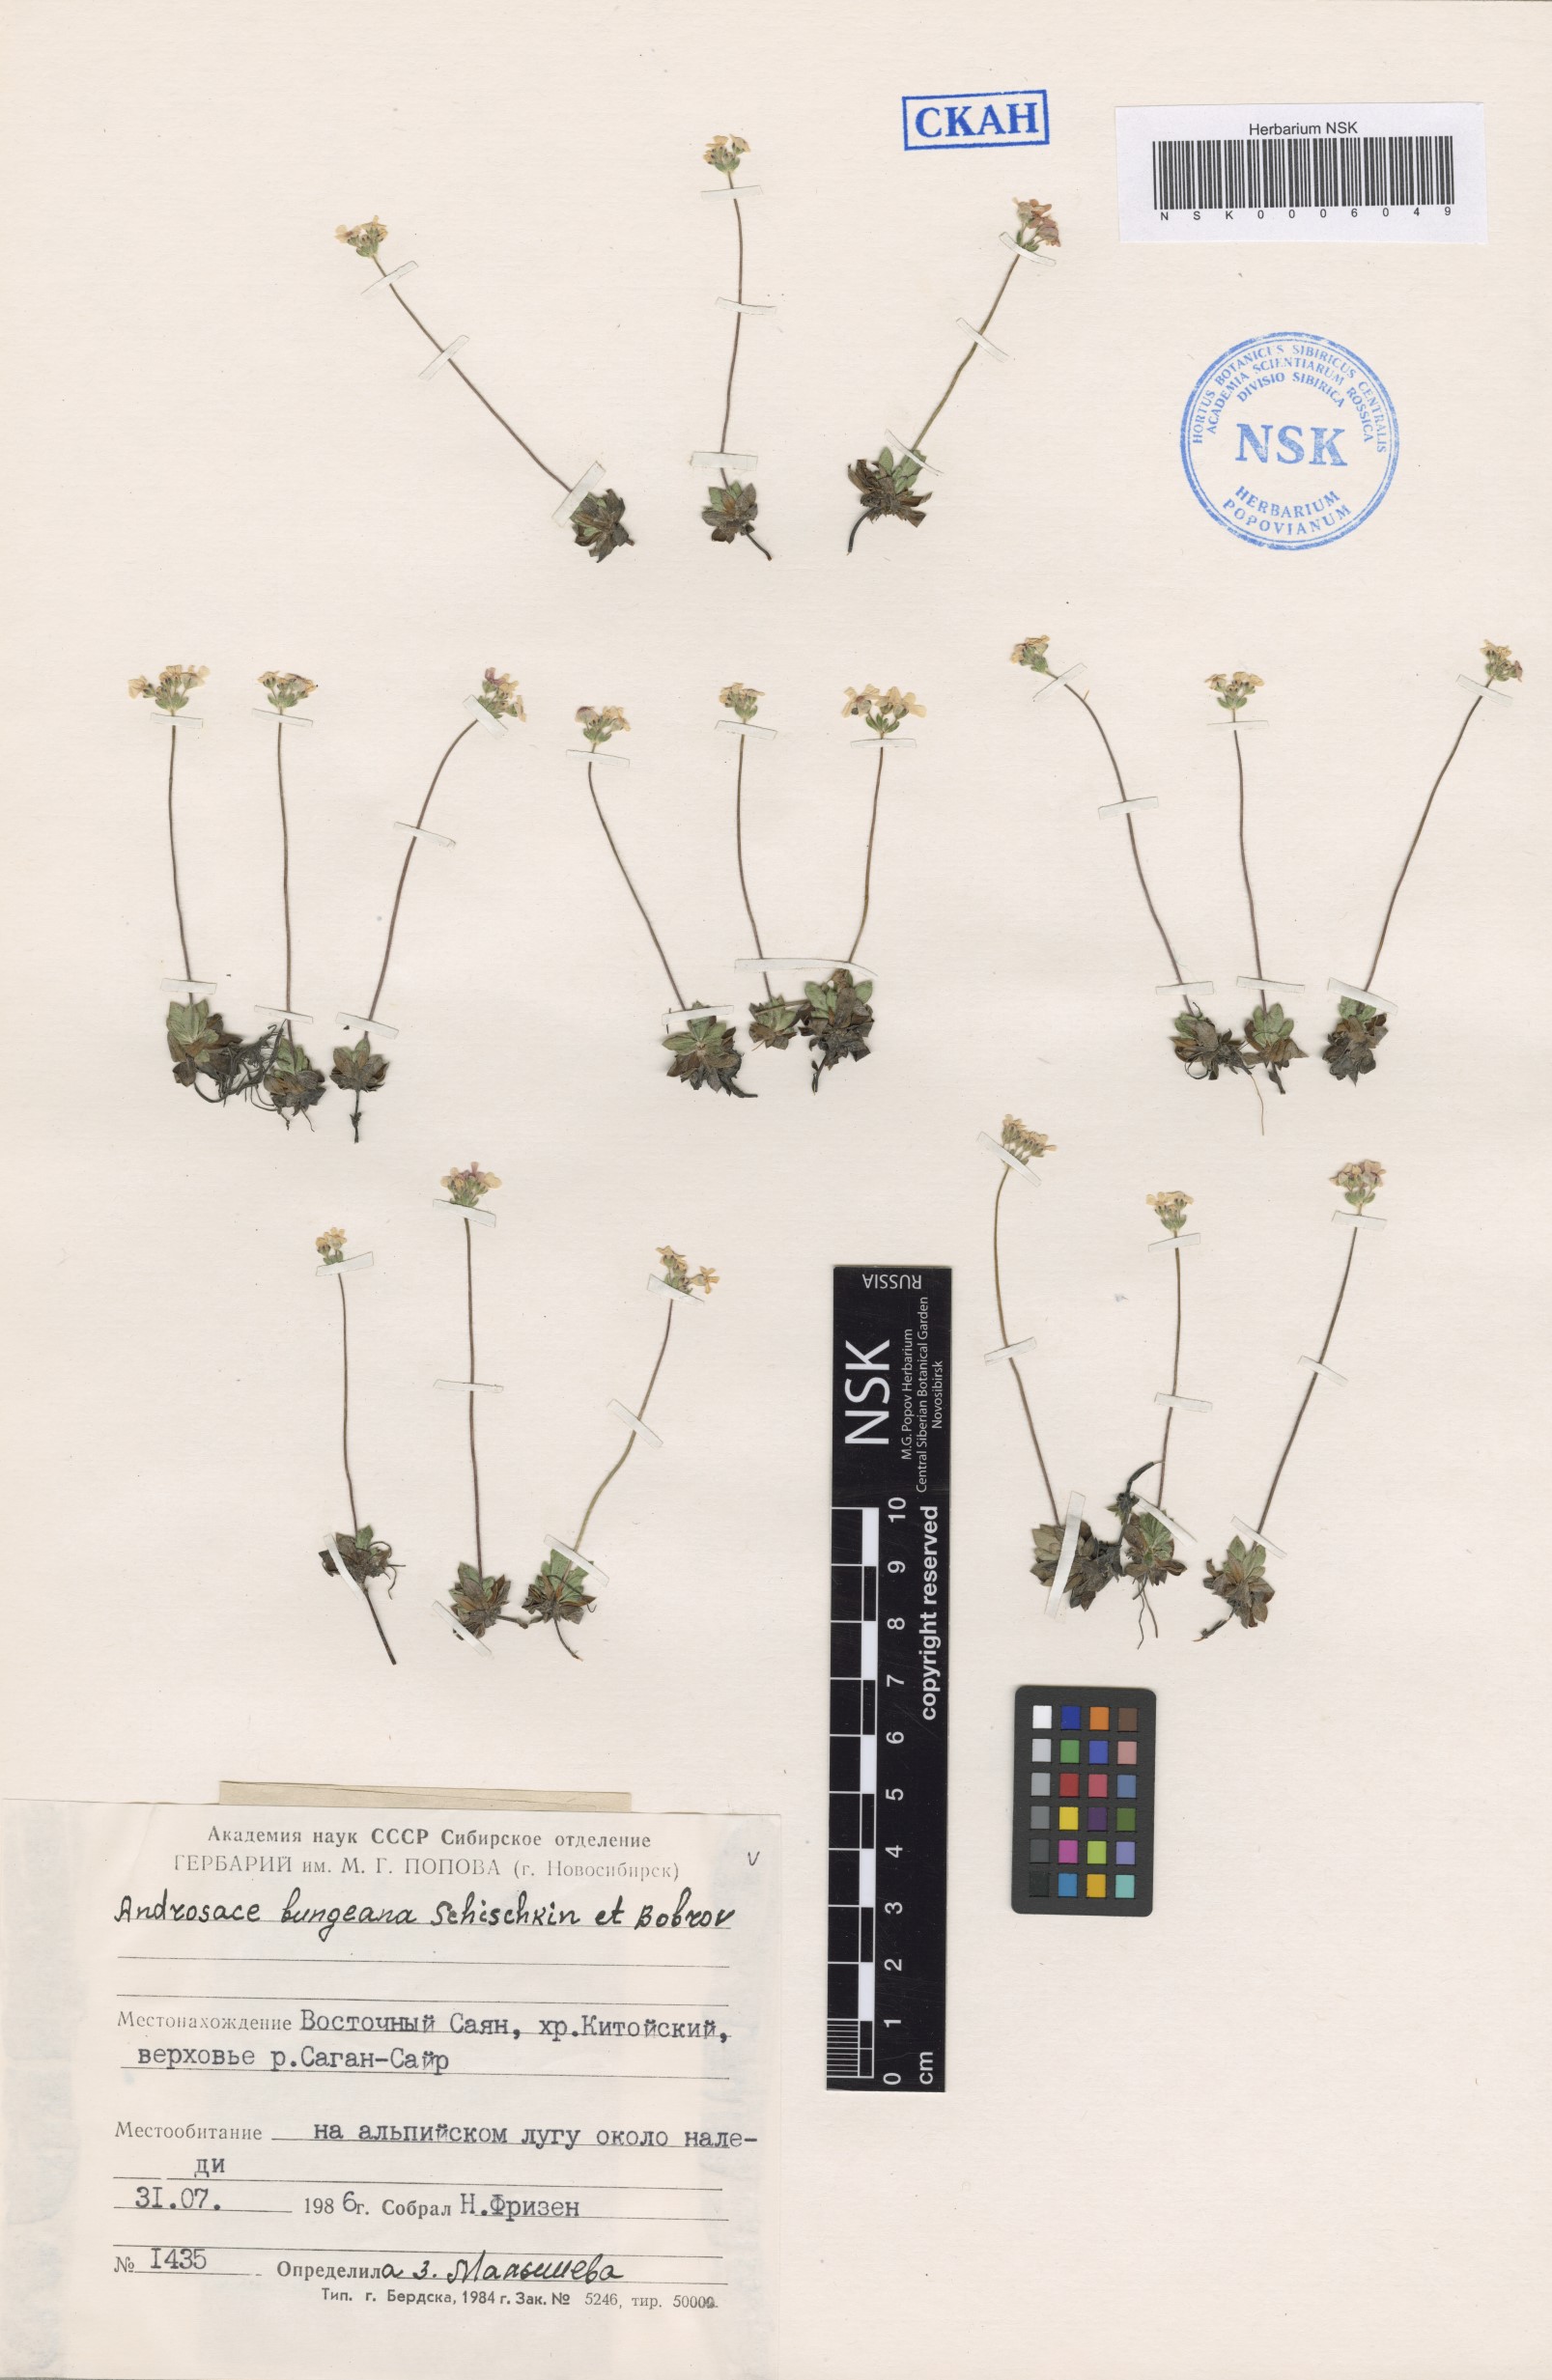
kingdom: Plantae
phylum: Tracheophyta
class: Magnoliopsida
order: Ericales
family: Primulaceae
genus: Androsace
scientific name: Androsace bungeana
